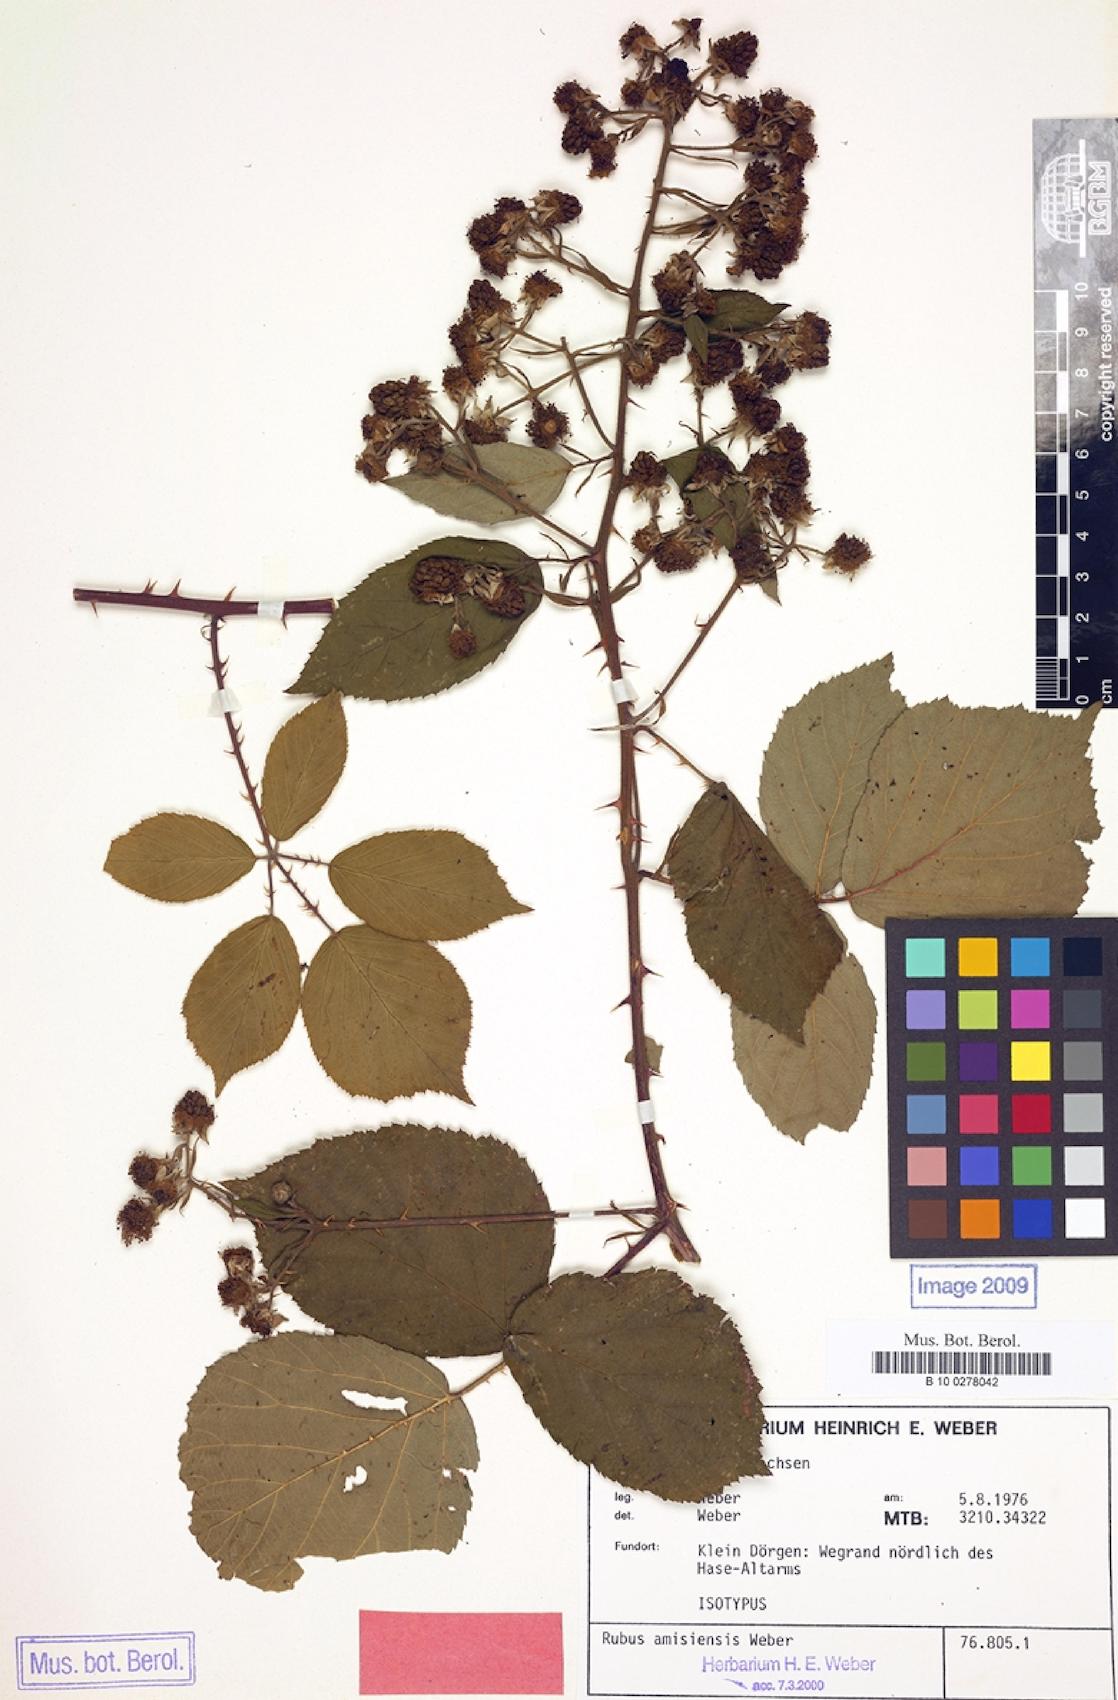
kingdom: Plantae
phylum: Tracheophyta
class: Magnoliopsida
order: Rosales
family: Rosaceae
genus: Rubus
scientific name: Rubus amisiensis
